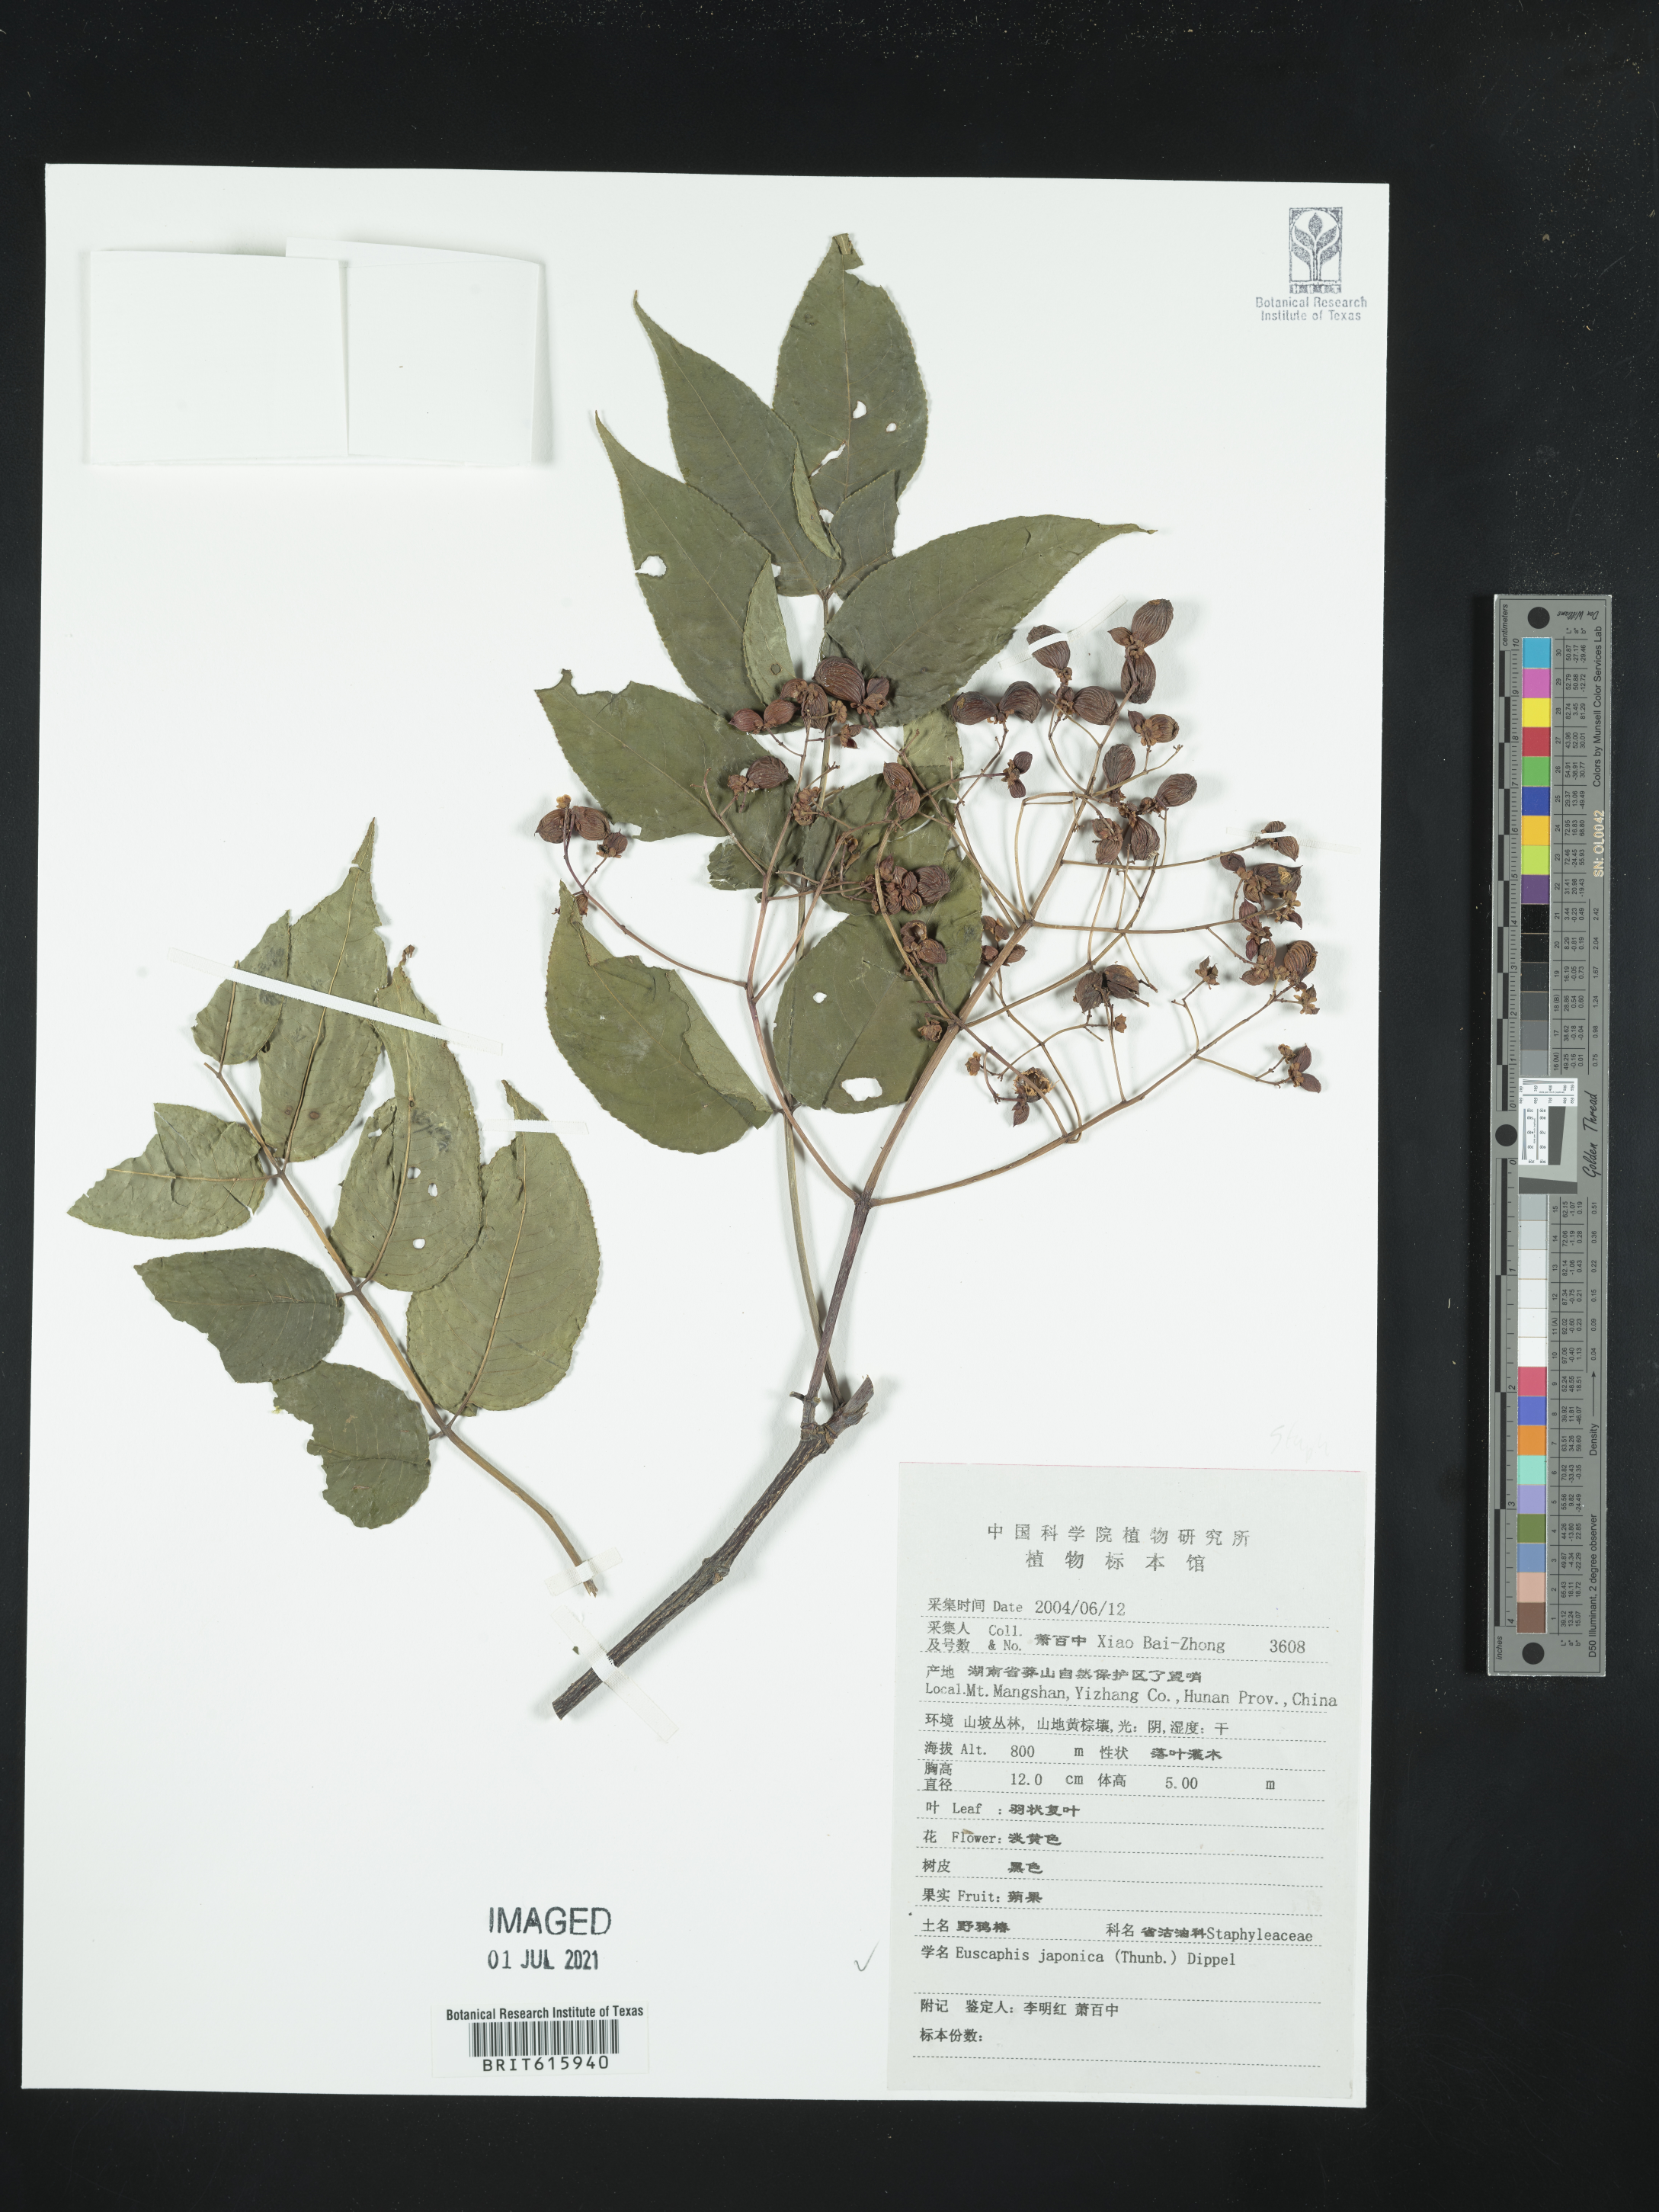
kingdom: Plantae
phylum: Tracheophyta
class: Magnoliopsida
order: Crossosomatales
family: Staphyleaceae
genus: Staphylea
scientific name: Staphylea japonica
